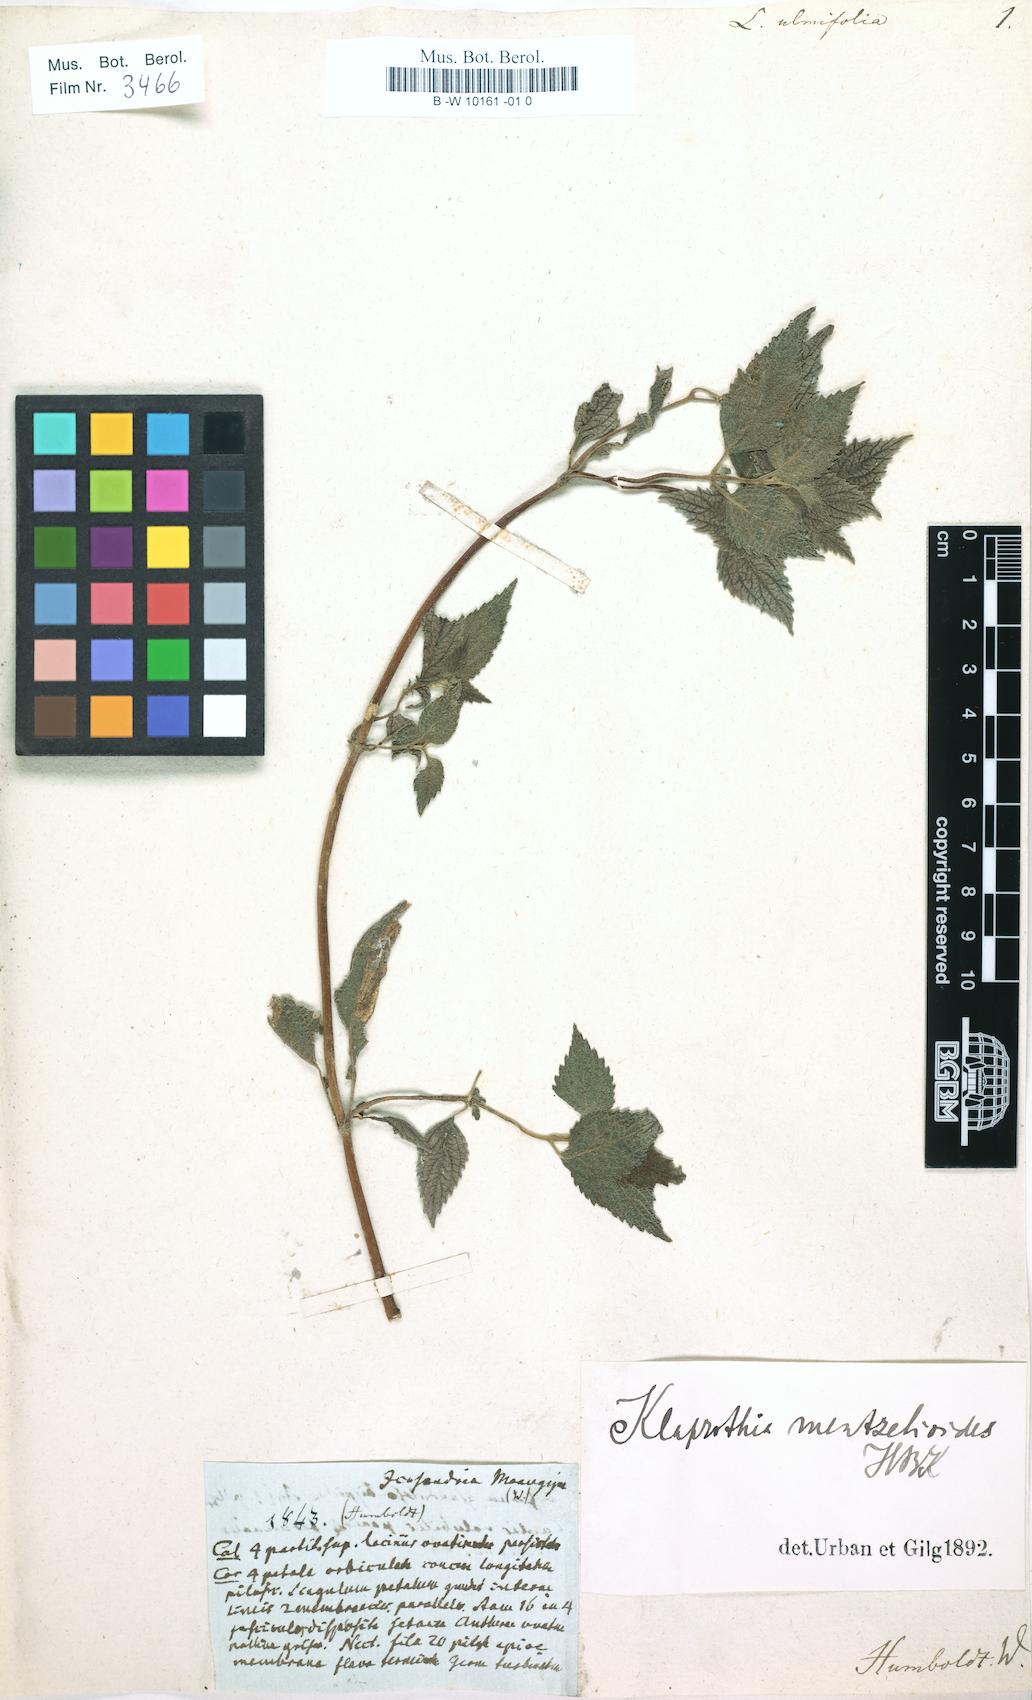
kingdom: Plantae
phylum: Tracheophyta
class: Magnoliopsida
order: Cornales
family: Loasaceae
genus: Loasa
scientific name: Loasa
